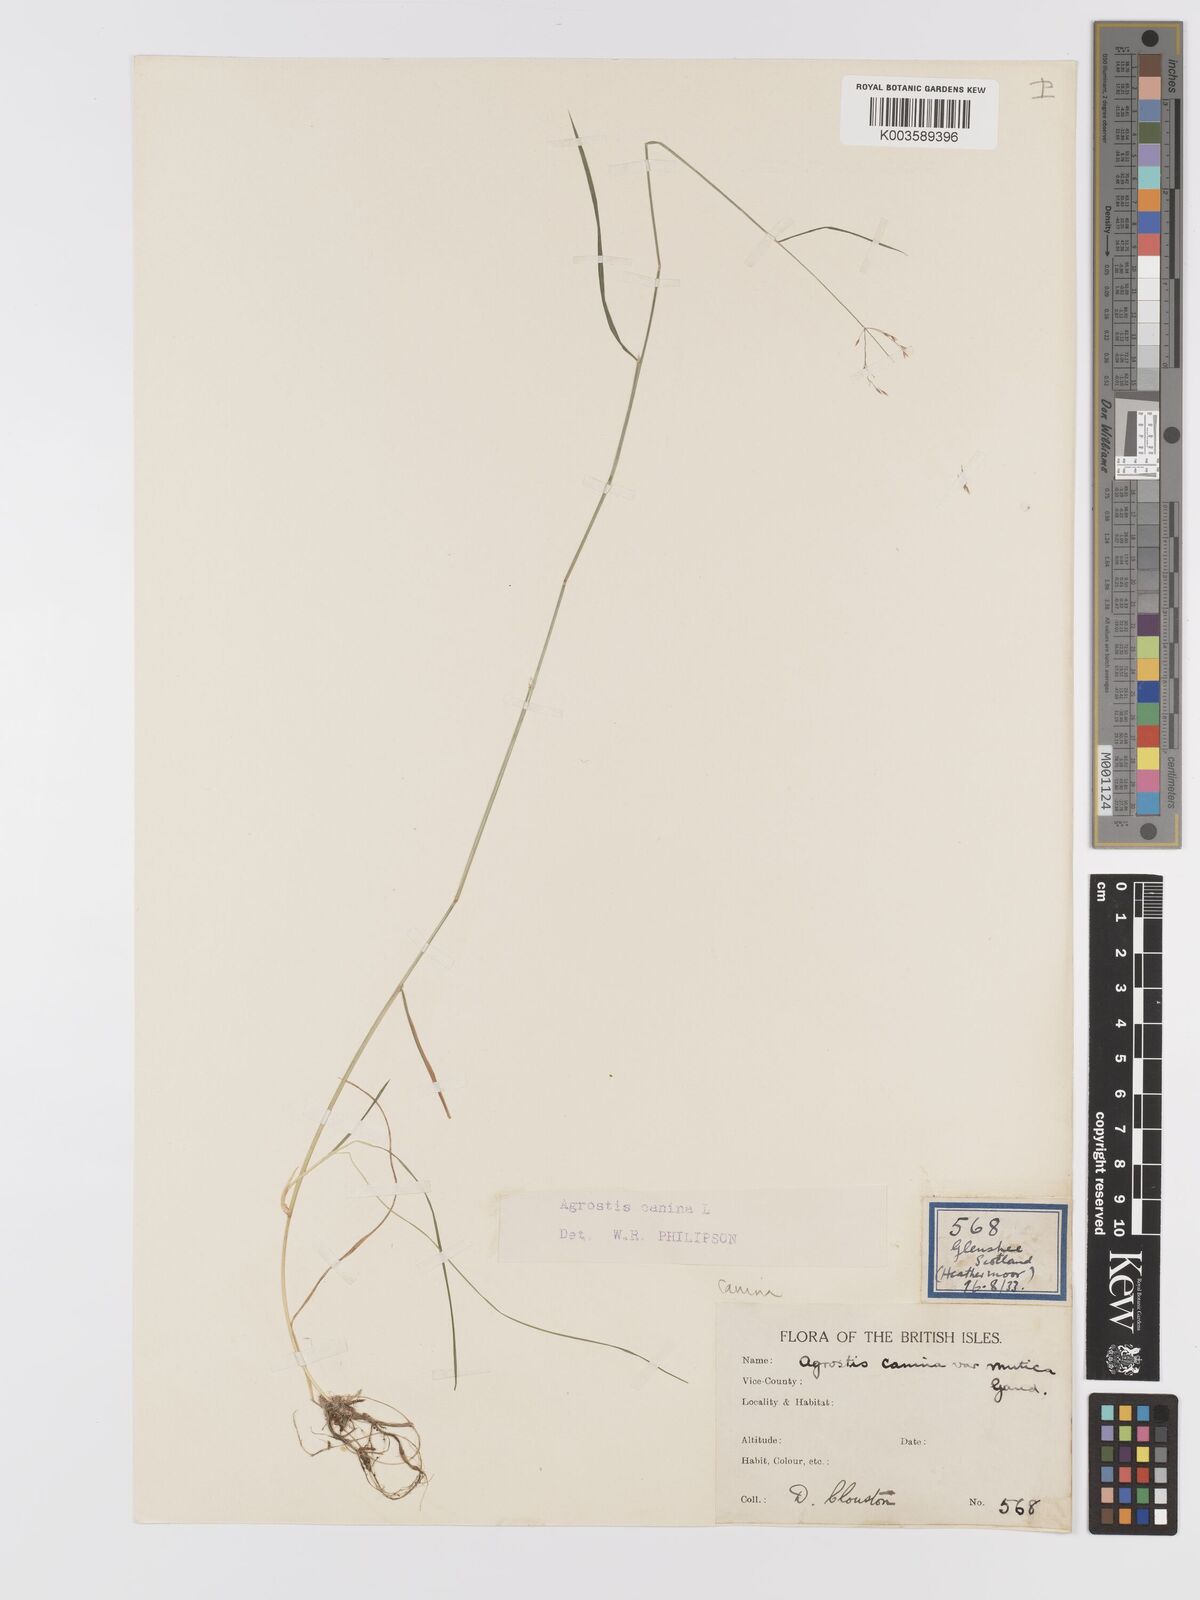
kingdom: Plantae
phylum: Tracheophyta
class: Liliopsida
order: Poales
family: Poaceae
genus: Agrostis
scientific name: Agrostis canina
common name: Velvet bent
